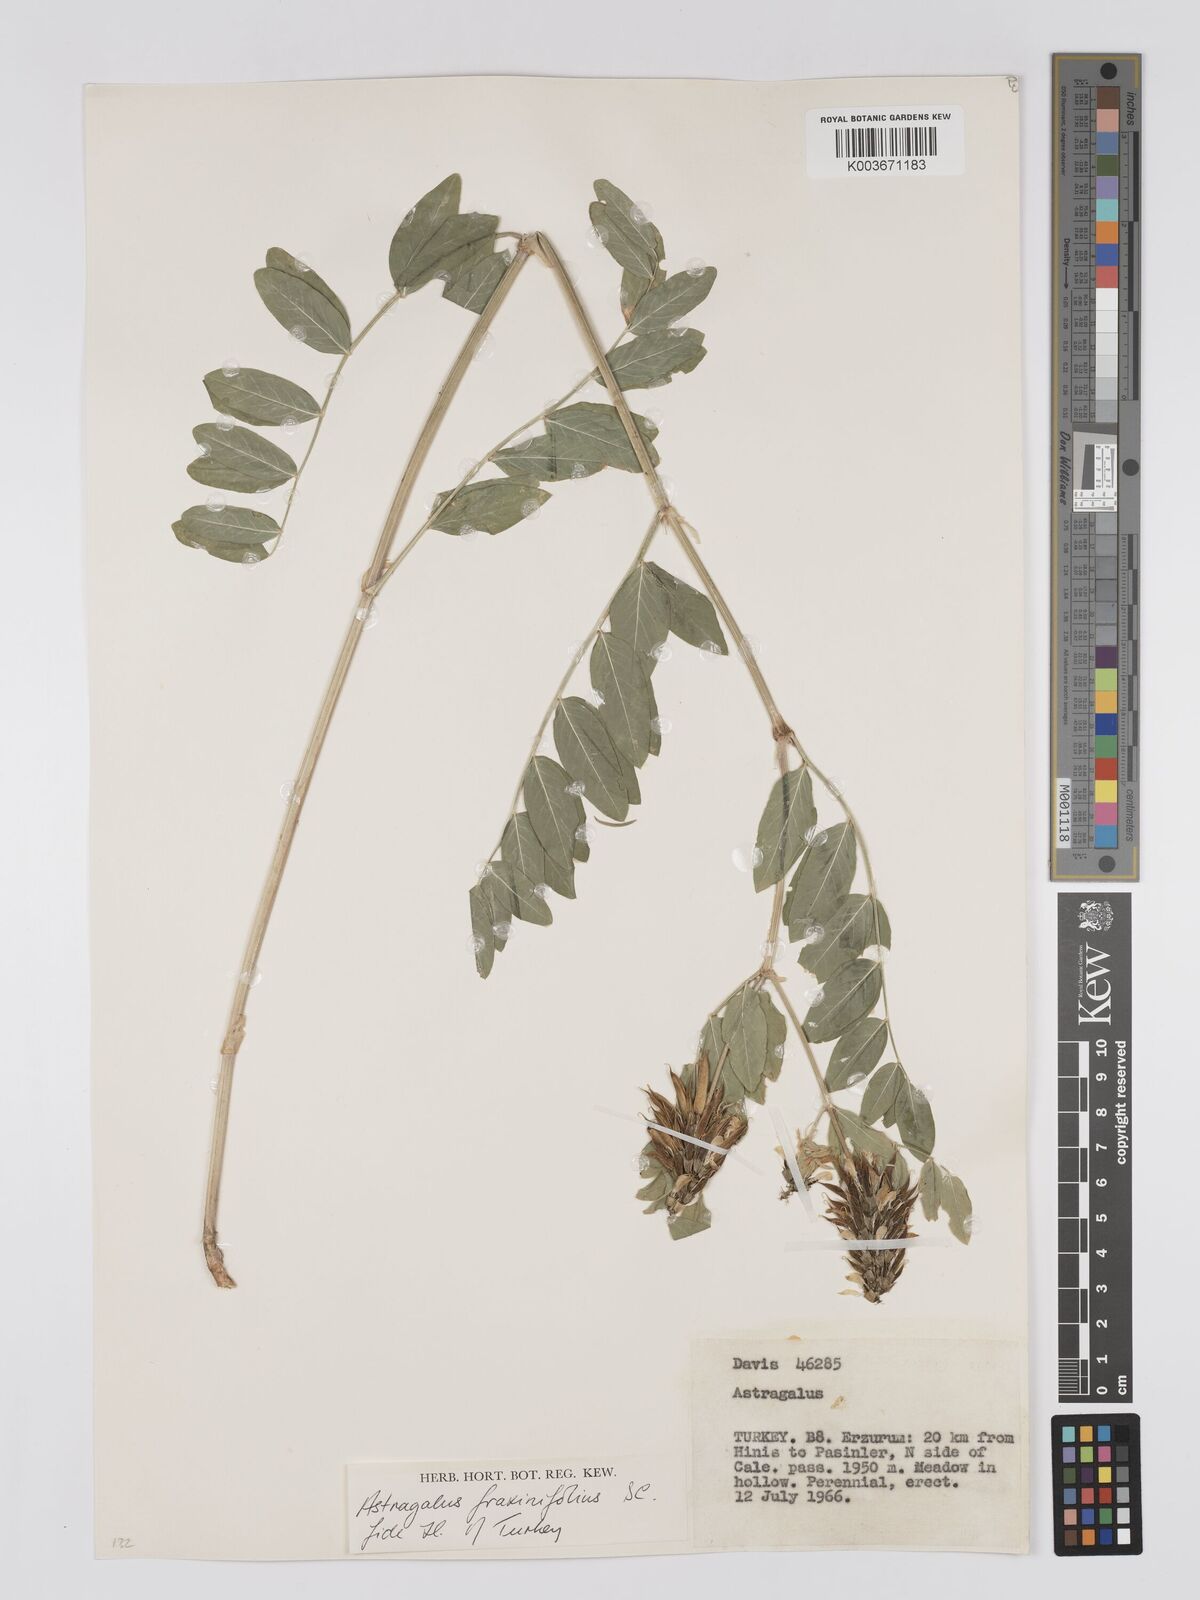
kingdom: Plantae
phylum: Tracheophyta
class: Magnoliopsida
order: Fabales
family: Fabaceae
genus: Astragalus
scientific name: Astragalus fraxinifolius
